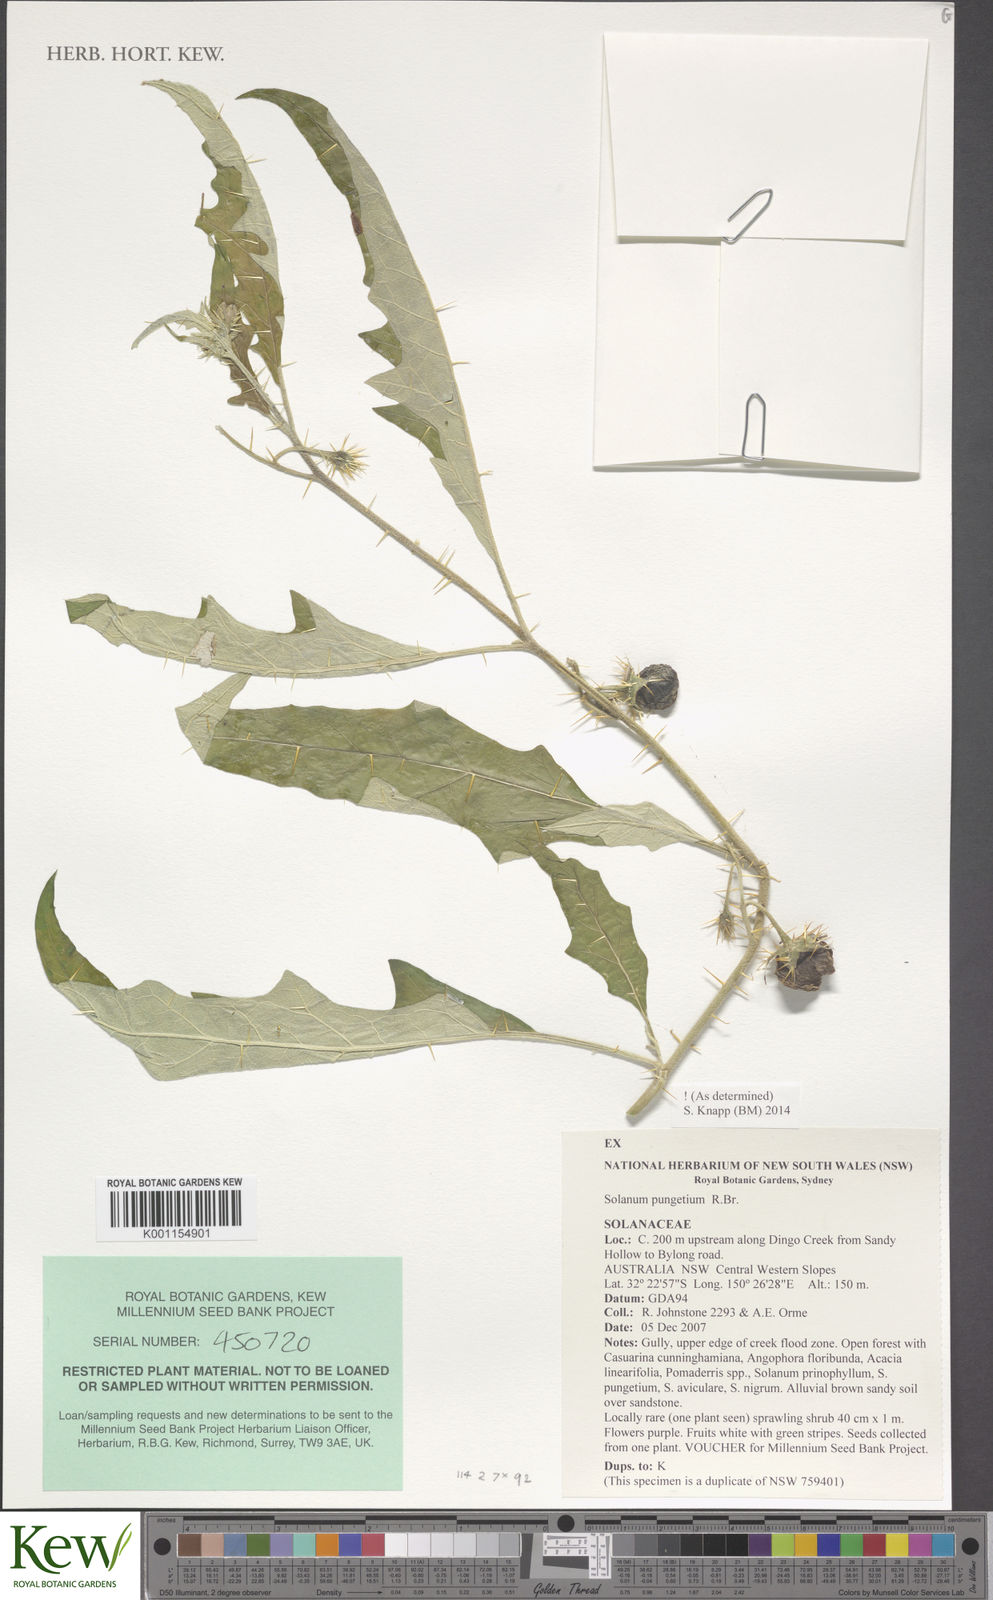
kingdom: Plantae
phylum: Tracheophyta
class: Magnoliopsida
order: Solanales
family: Solanaceae
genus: Solanum
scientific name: Solanum pungetium
